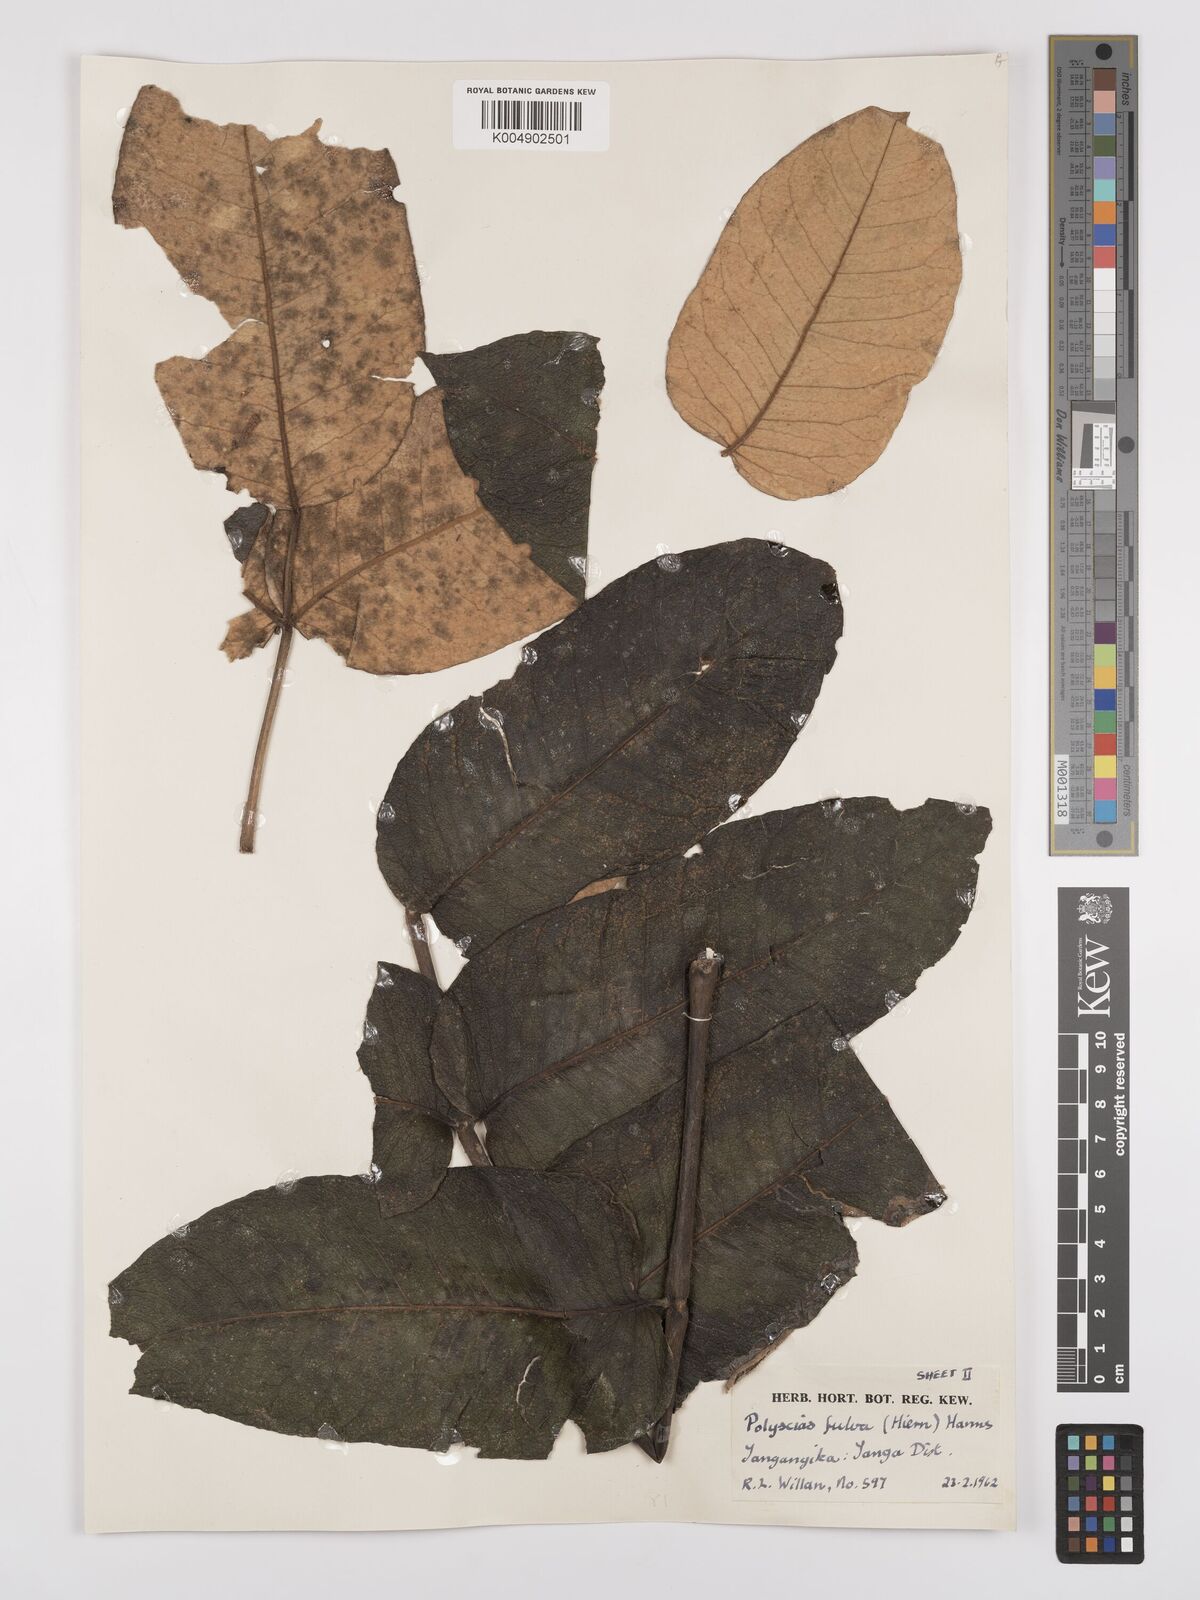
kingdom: Plantae
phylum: Tracheophyta
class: Magnoliopsida
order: Apiales
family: Araliaceae
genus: Polyscias
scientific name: Polyscias fulva
